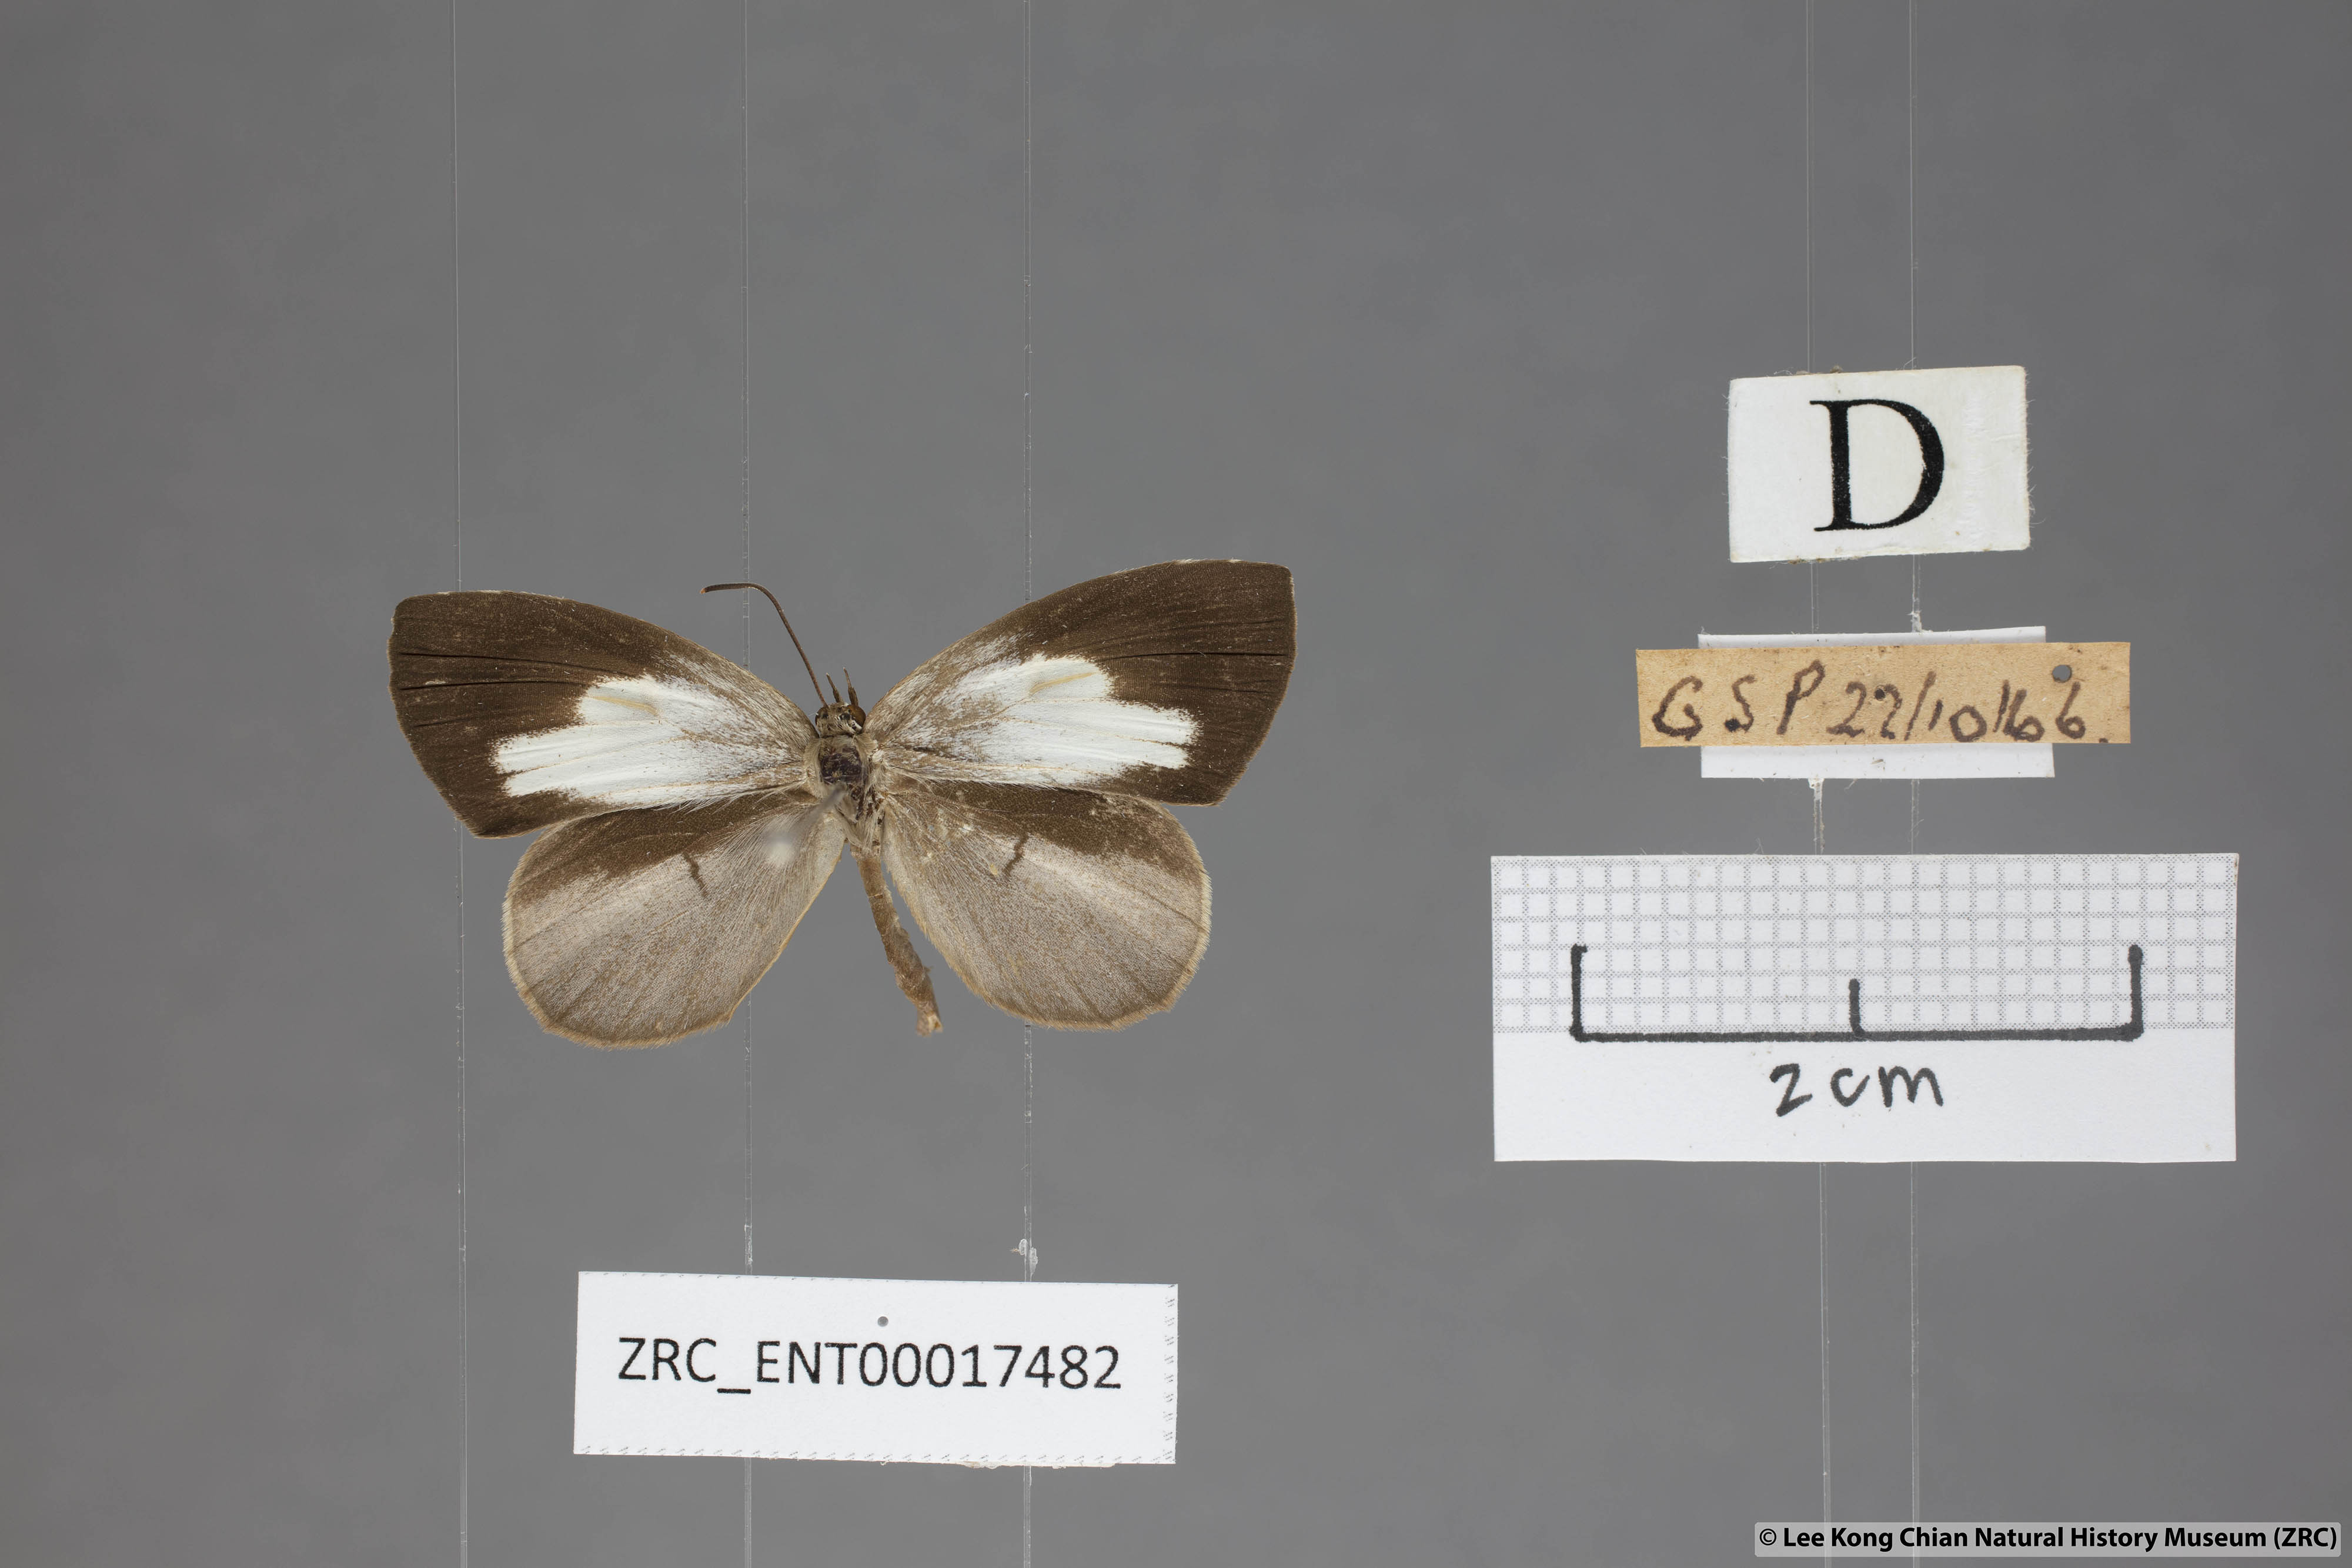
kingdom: Animalia
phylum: Arthropoda
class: Insecta
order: Lepidoptera
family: Lycaenidae
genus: Miletus
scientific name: Miletus symethus
